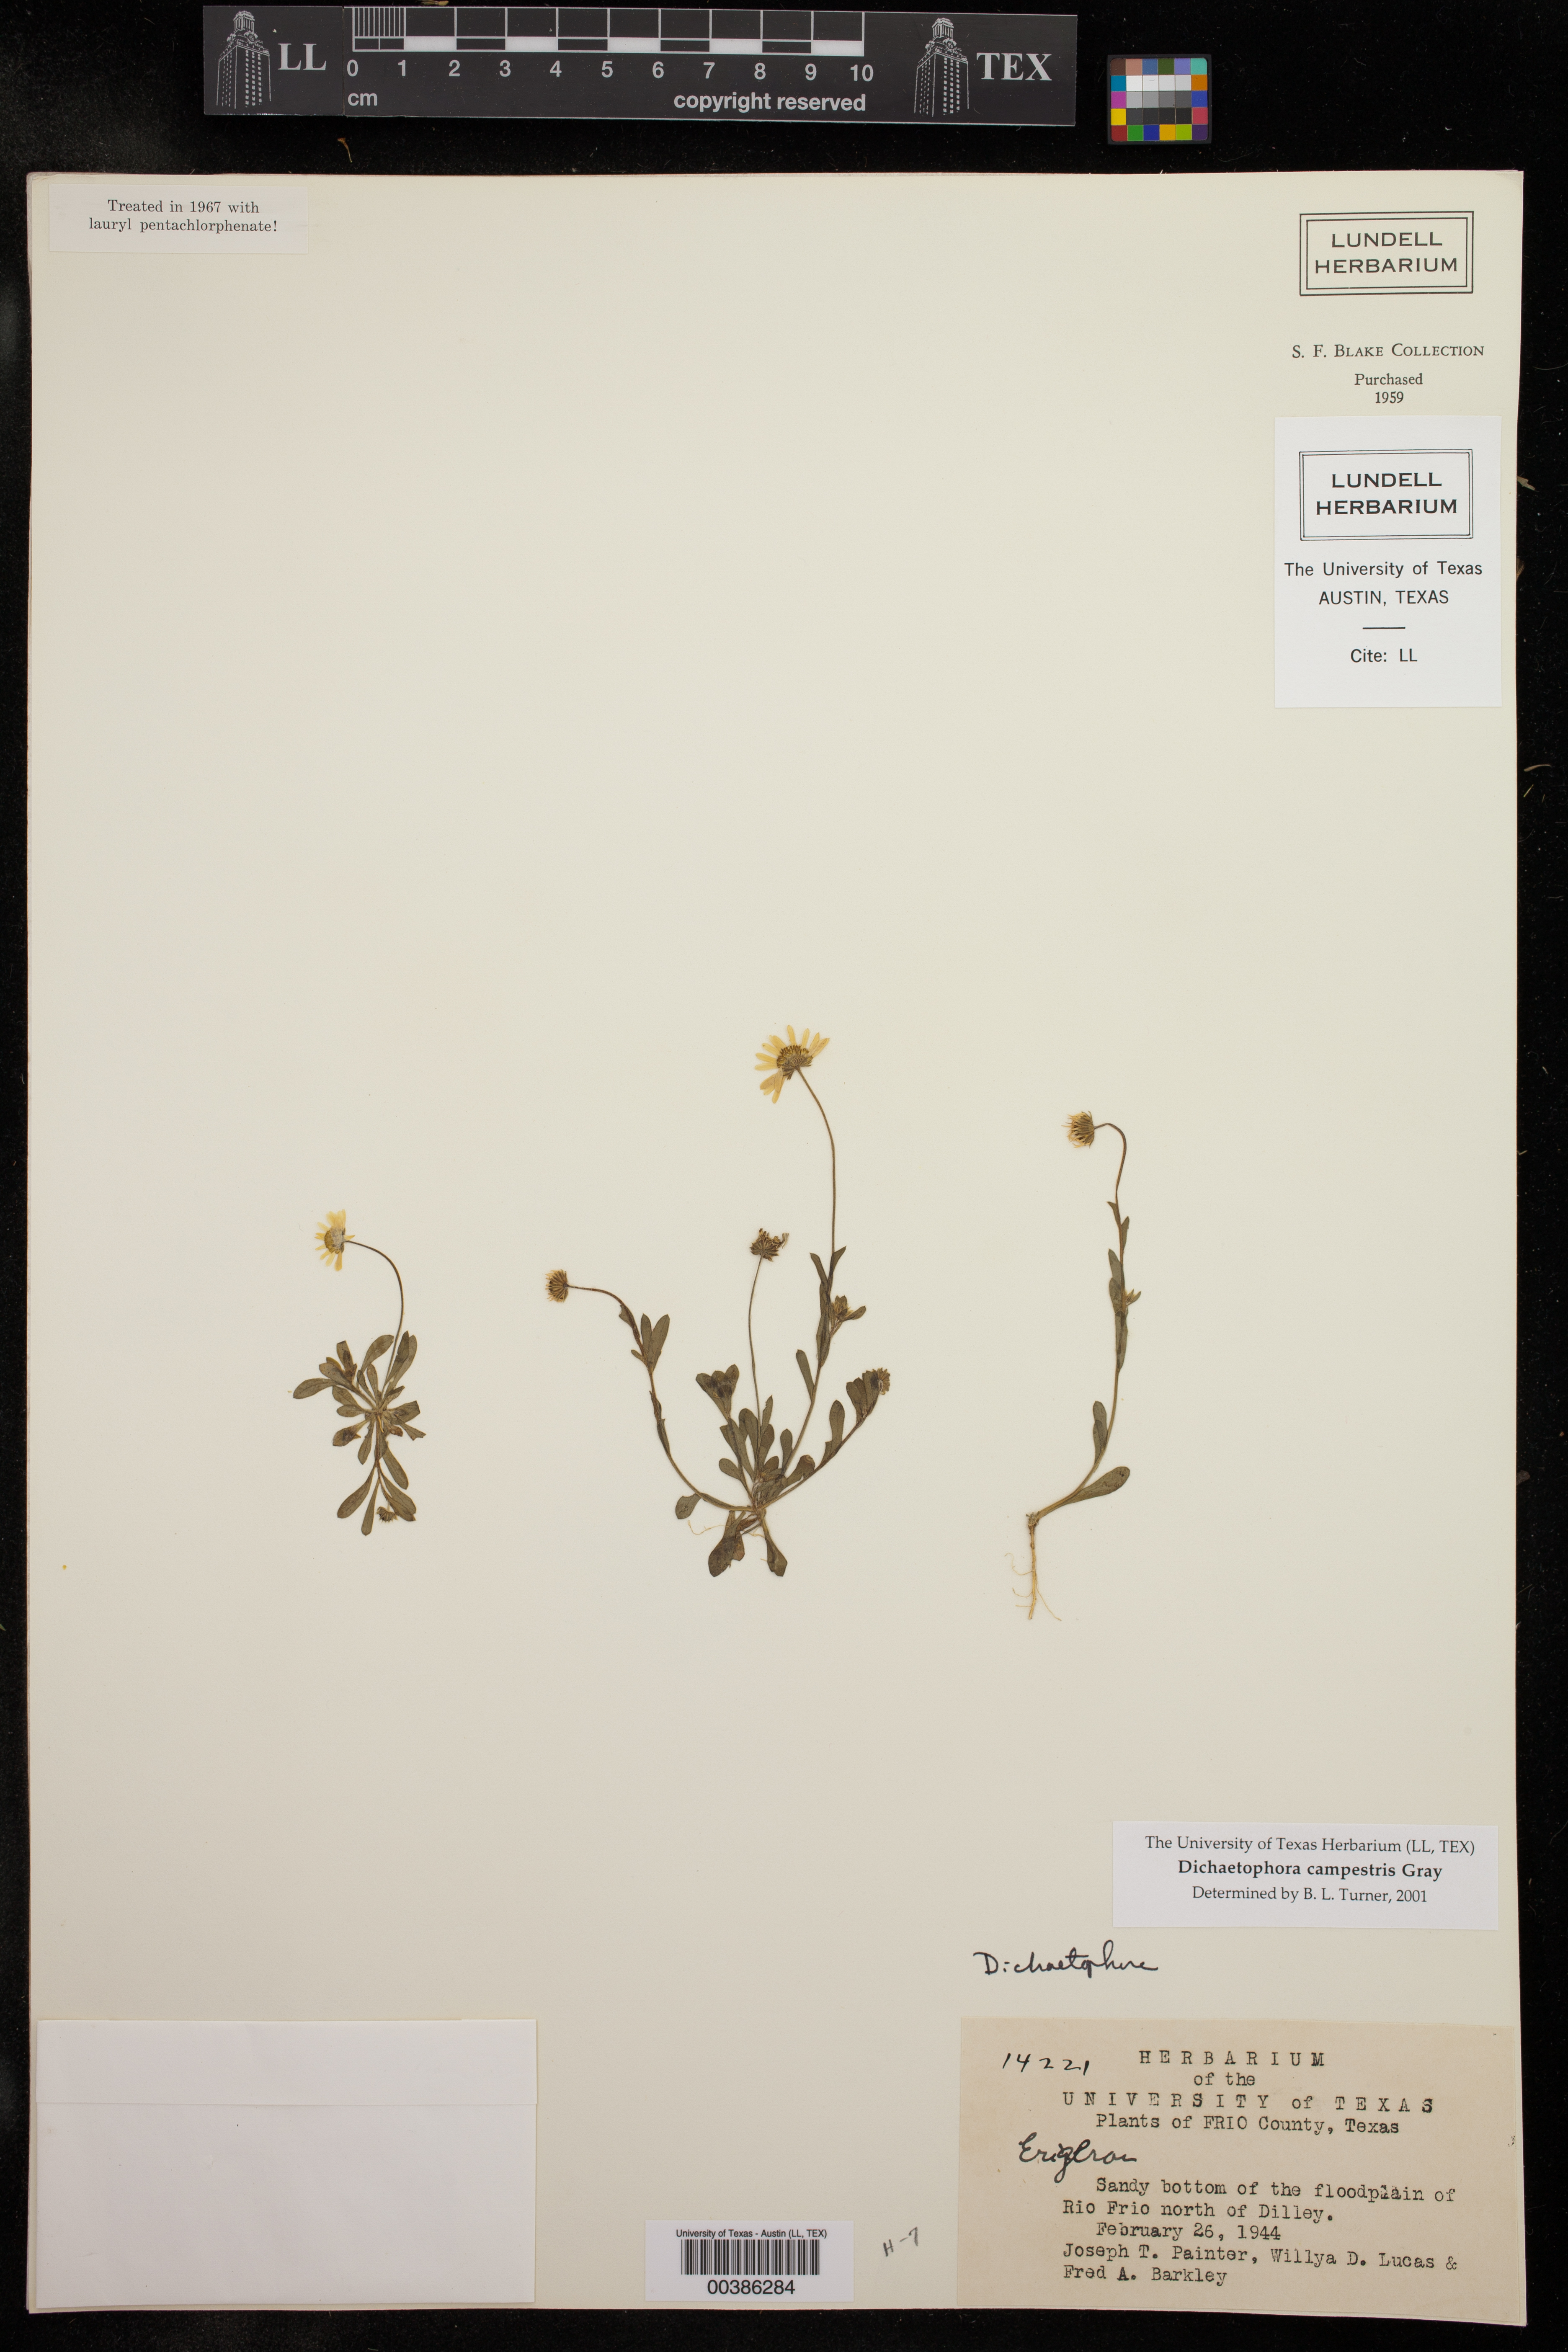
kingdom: Plantae
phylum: Tracheophyta
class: Magnoliopsida
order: Asterales
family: Asteraceae
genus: Dichaetophora
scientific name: Dichaetophora campestris
